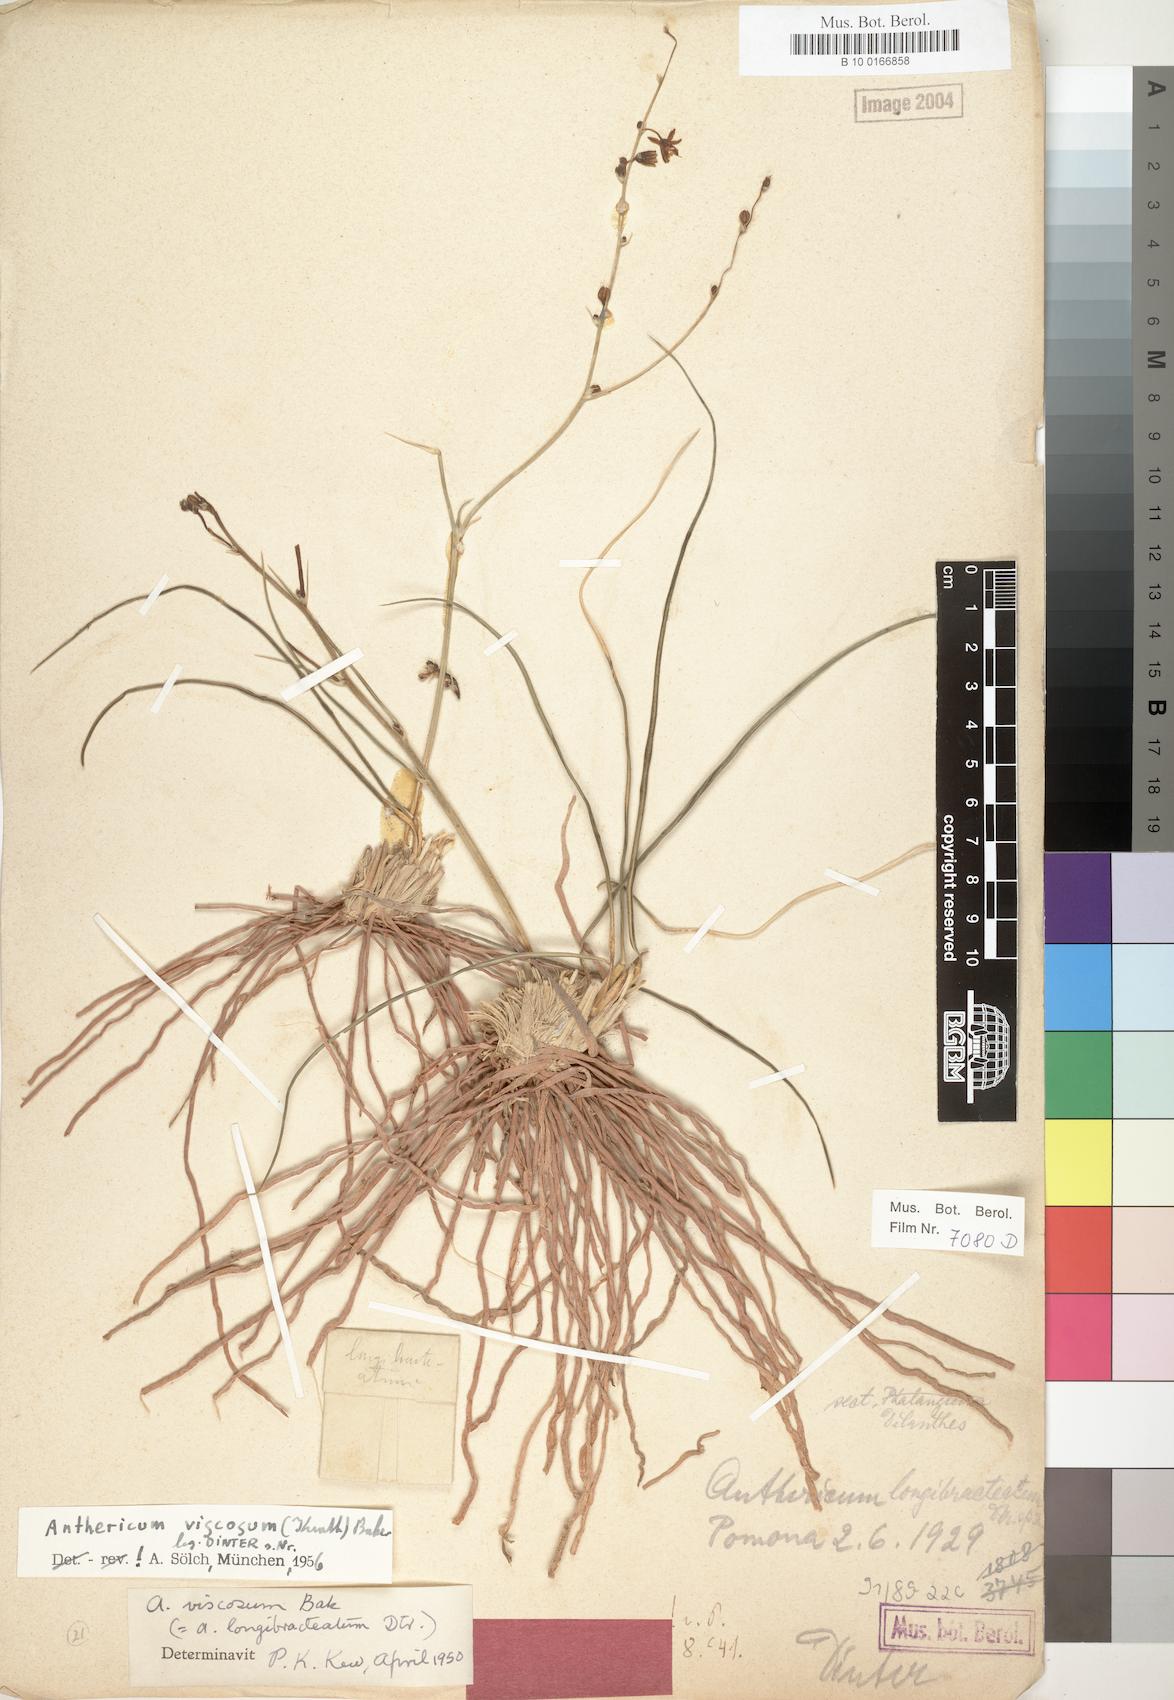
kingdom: Plantae
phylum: Tracheophyta
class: Liliopsida
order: Asparagales
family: Asparagaceae
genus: Chlorophytum
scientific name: Chlorophytum viscosum
